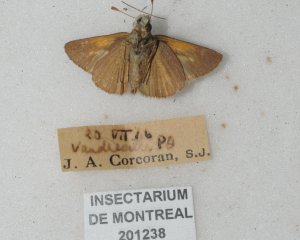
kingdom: Animalia
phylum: Arthropoda
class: Insecta
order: Lepidoptera
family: Hesperiidae
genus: Polites
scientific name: Polites themistocles
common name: Tawny-edged Skipper
